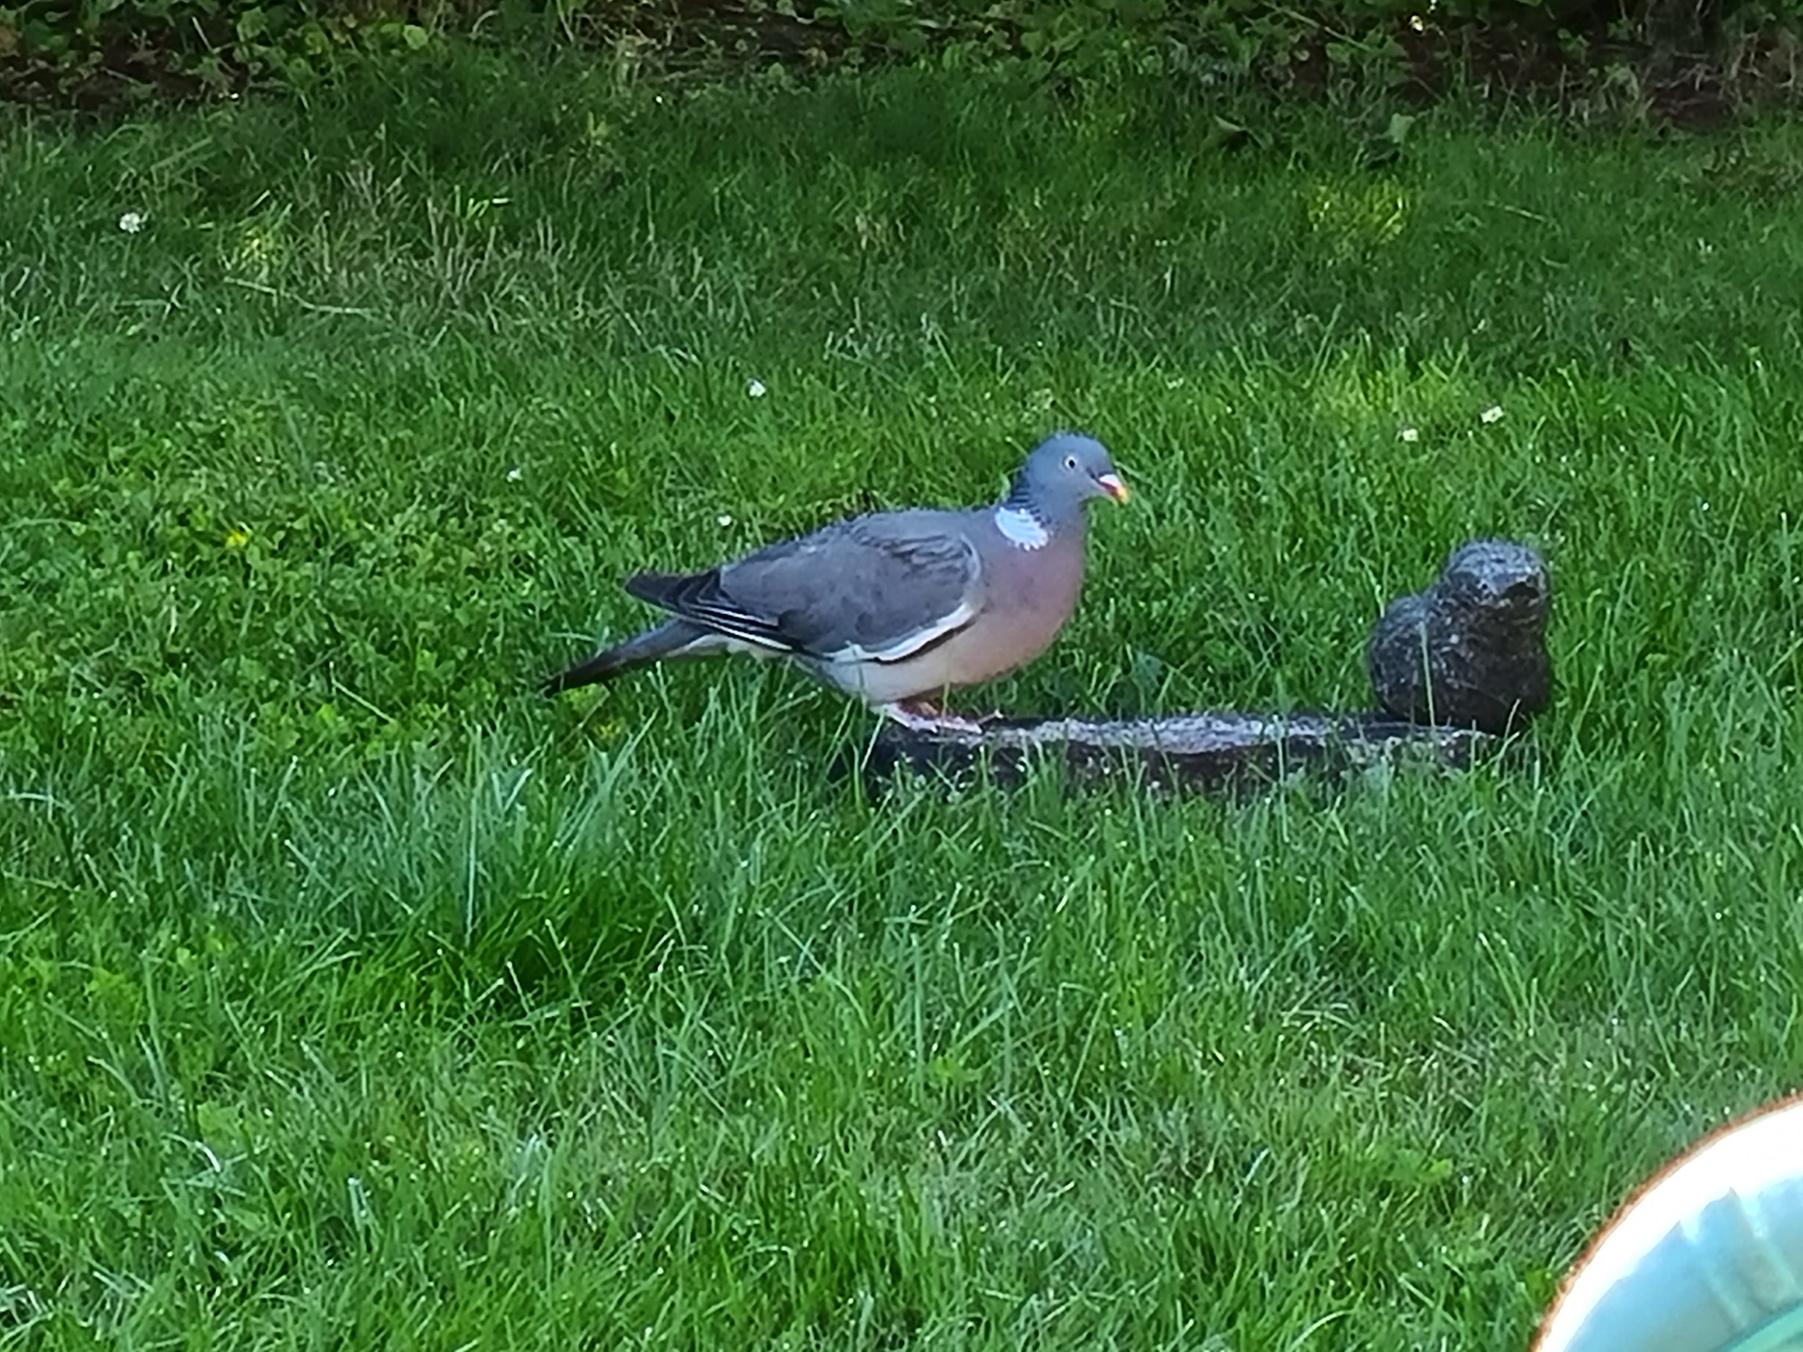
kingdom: Animalia
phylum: Chordata
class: Aves
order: Columbiformes
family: Columbidae
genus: Columba
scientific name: Columba palumbus
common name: Ringdue
